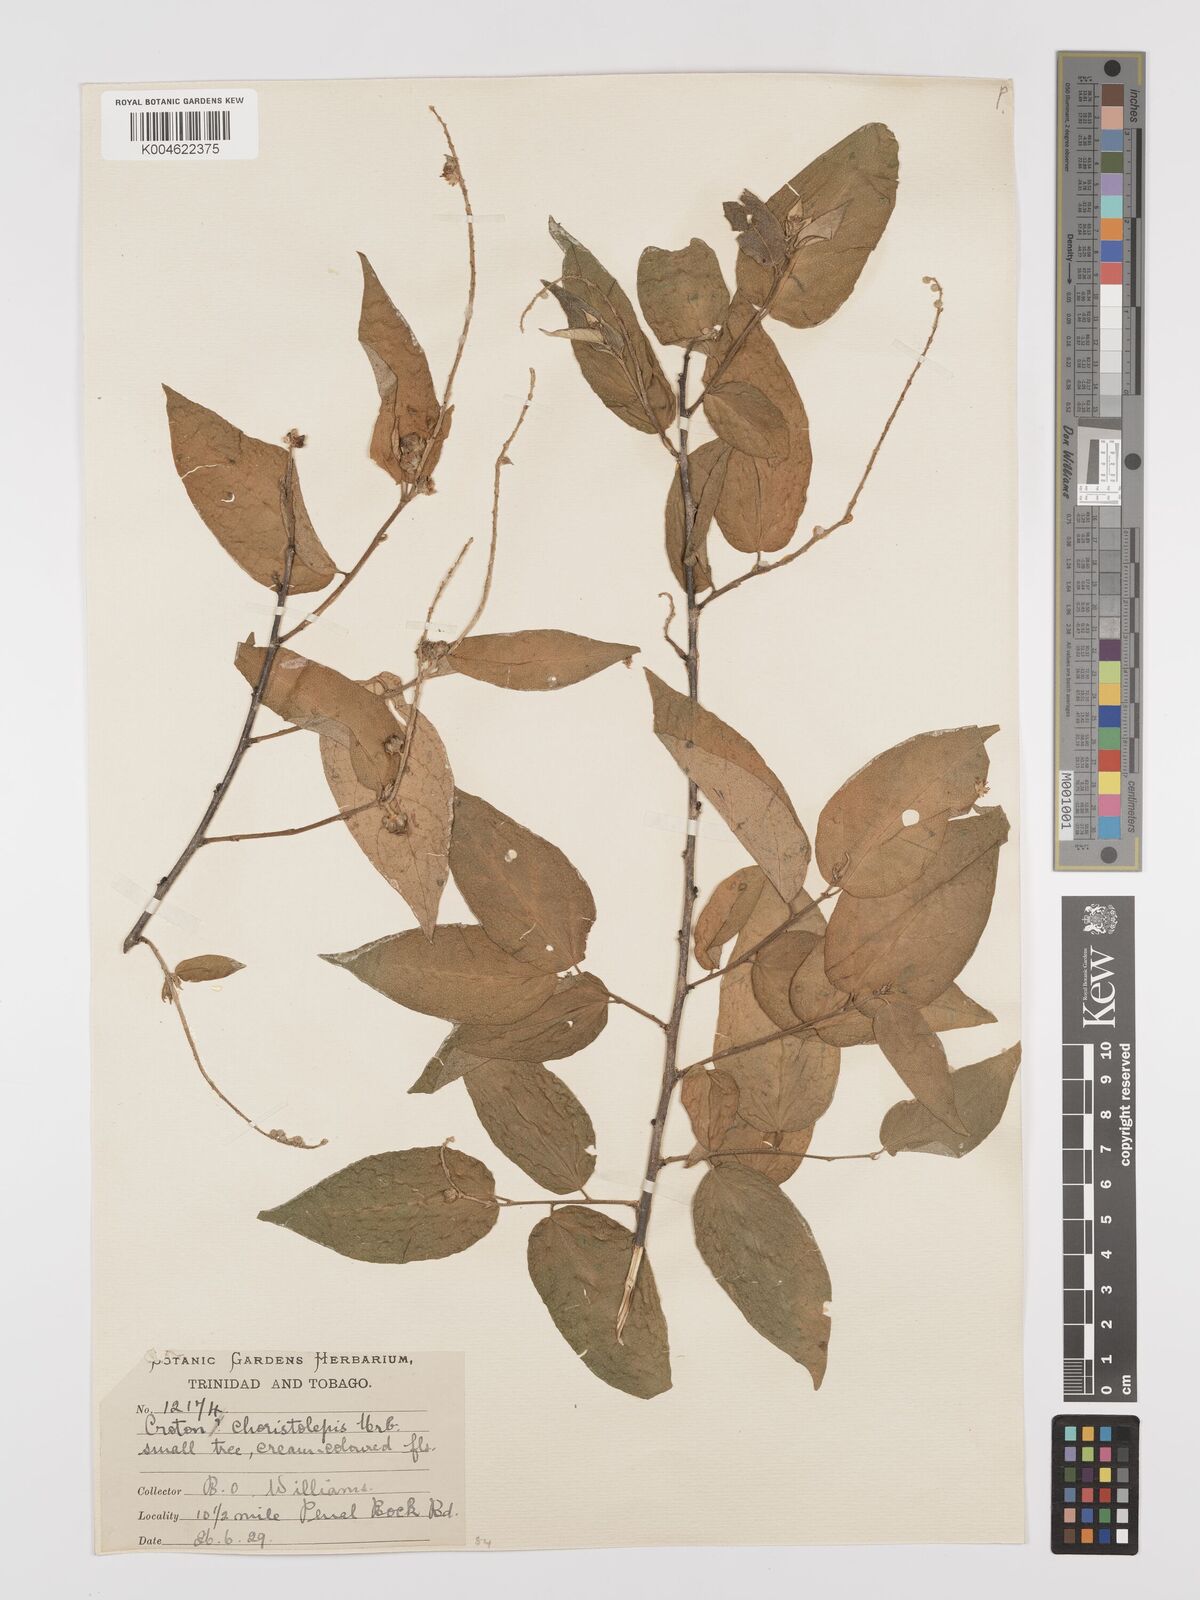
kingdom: Plantae
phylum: Tracheophyta
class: Magnoliopsida
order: Malpighiales
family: Euphorbiaceae
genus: Croton
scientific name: Croton micans
